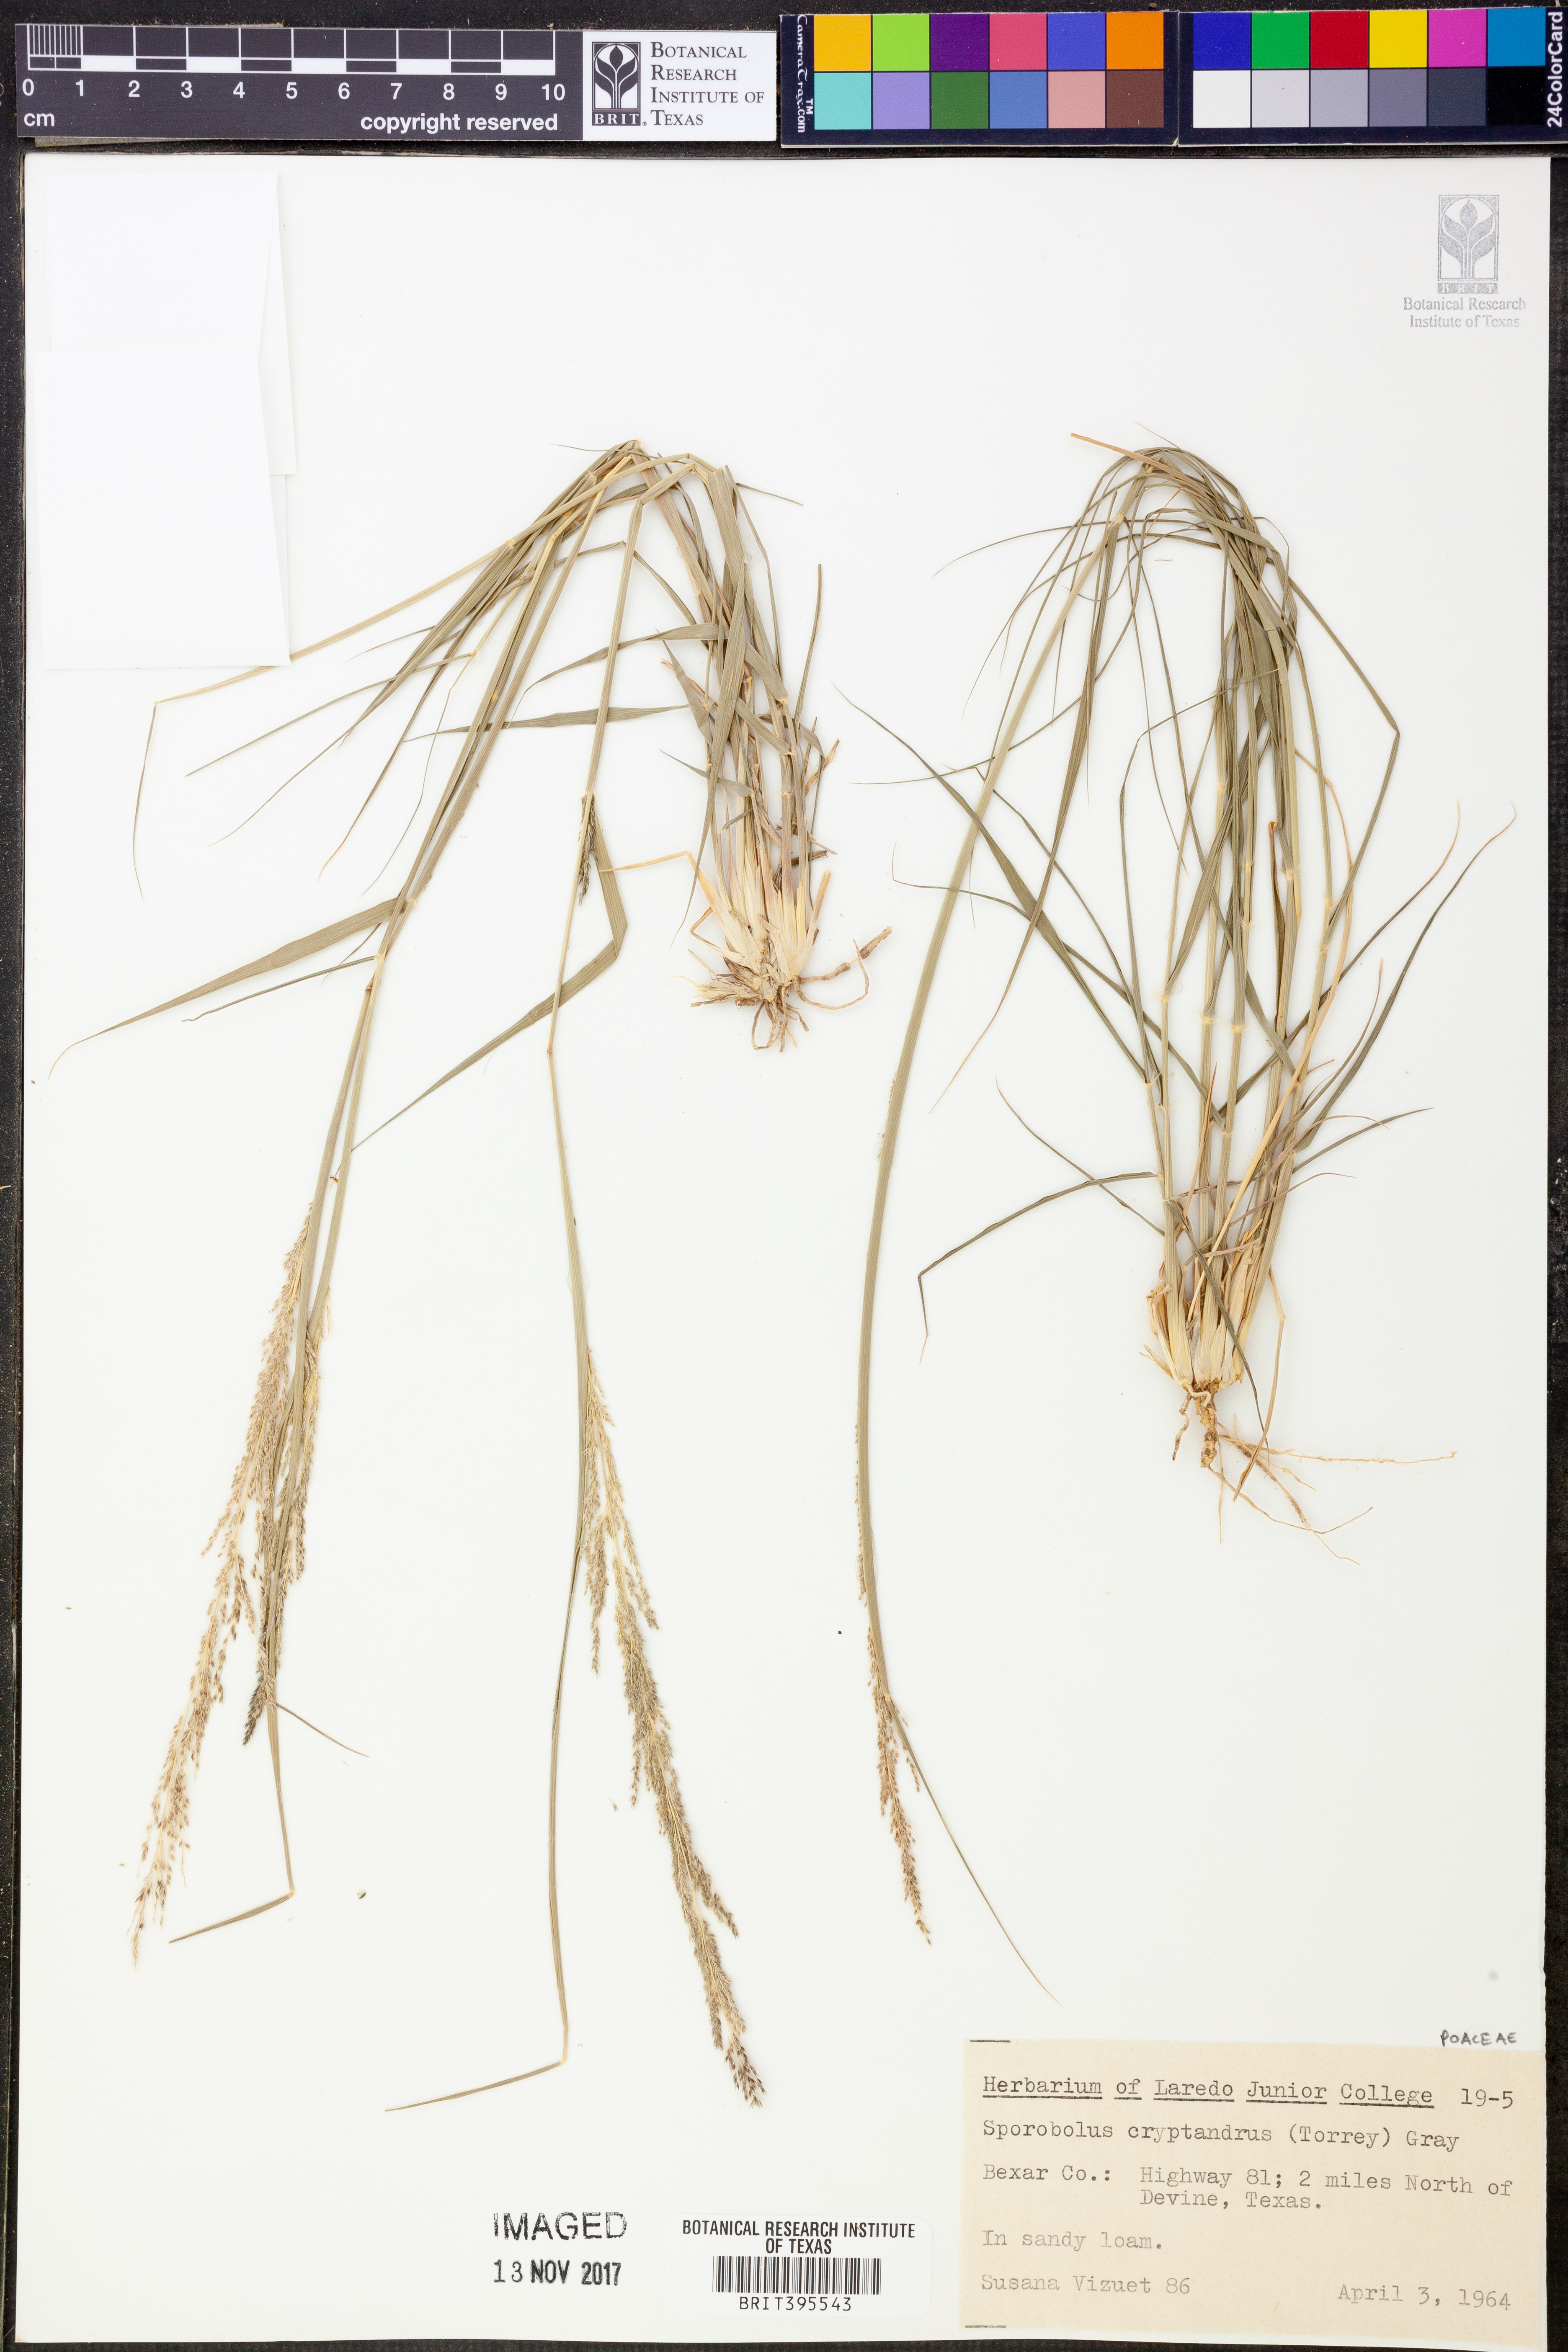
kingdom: Plantae
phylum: Tracheophyta
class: Liliopsida
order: Poales
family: Poaceae
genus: Sporobolus
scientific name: Sporobolus cryptandrus
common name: Sand dropseed
